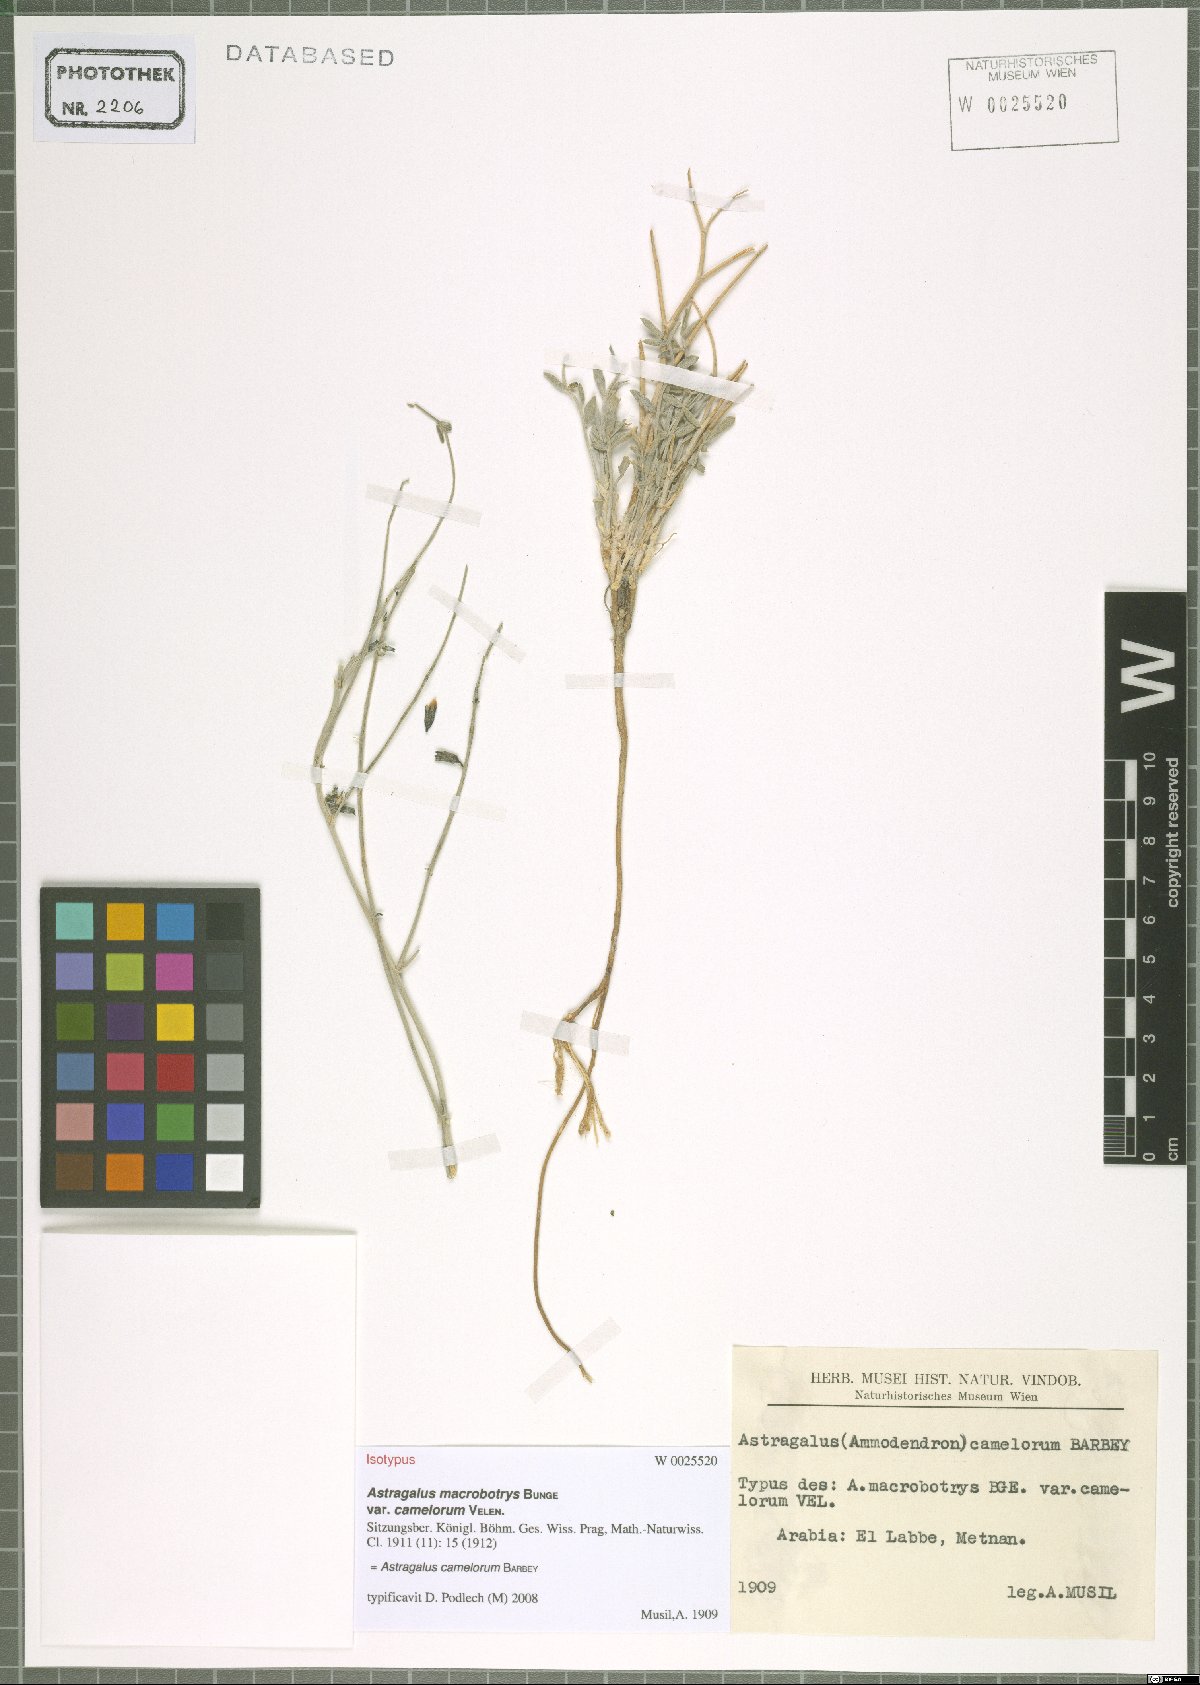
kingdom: Plantae
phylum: Tracheophyta
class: Magnoliopsida
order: Fabales
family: Fabaceae
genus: Astragalus
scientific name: Astragalus camelorum
